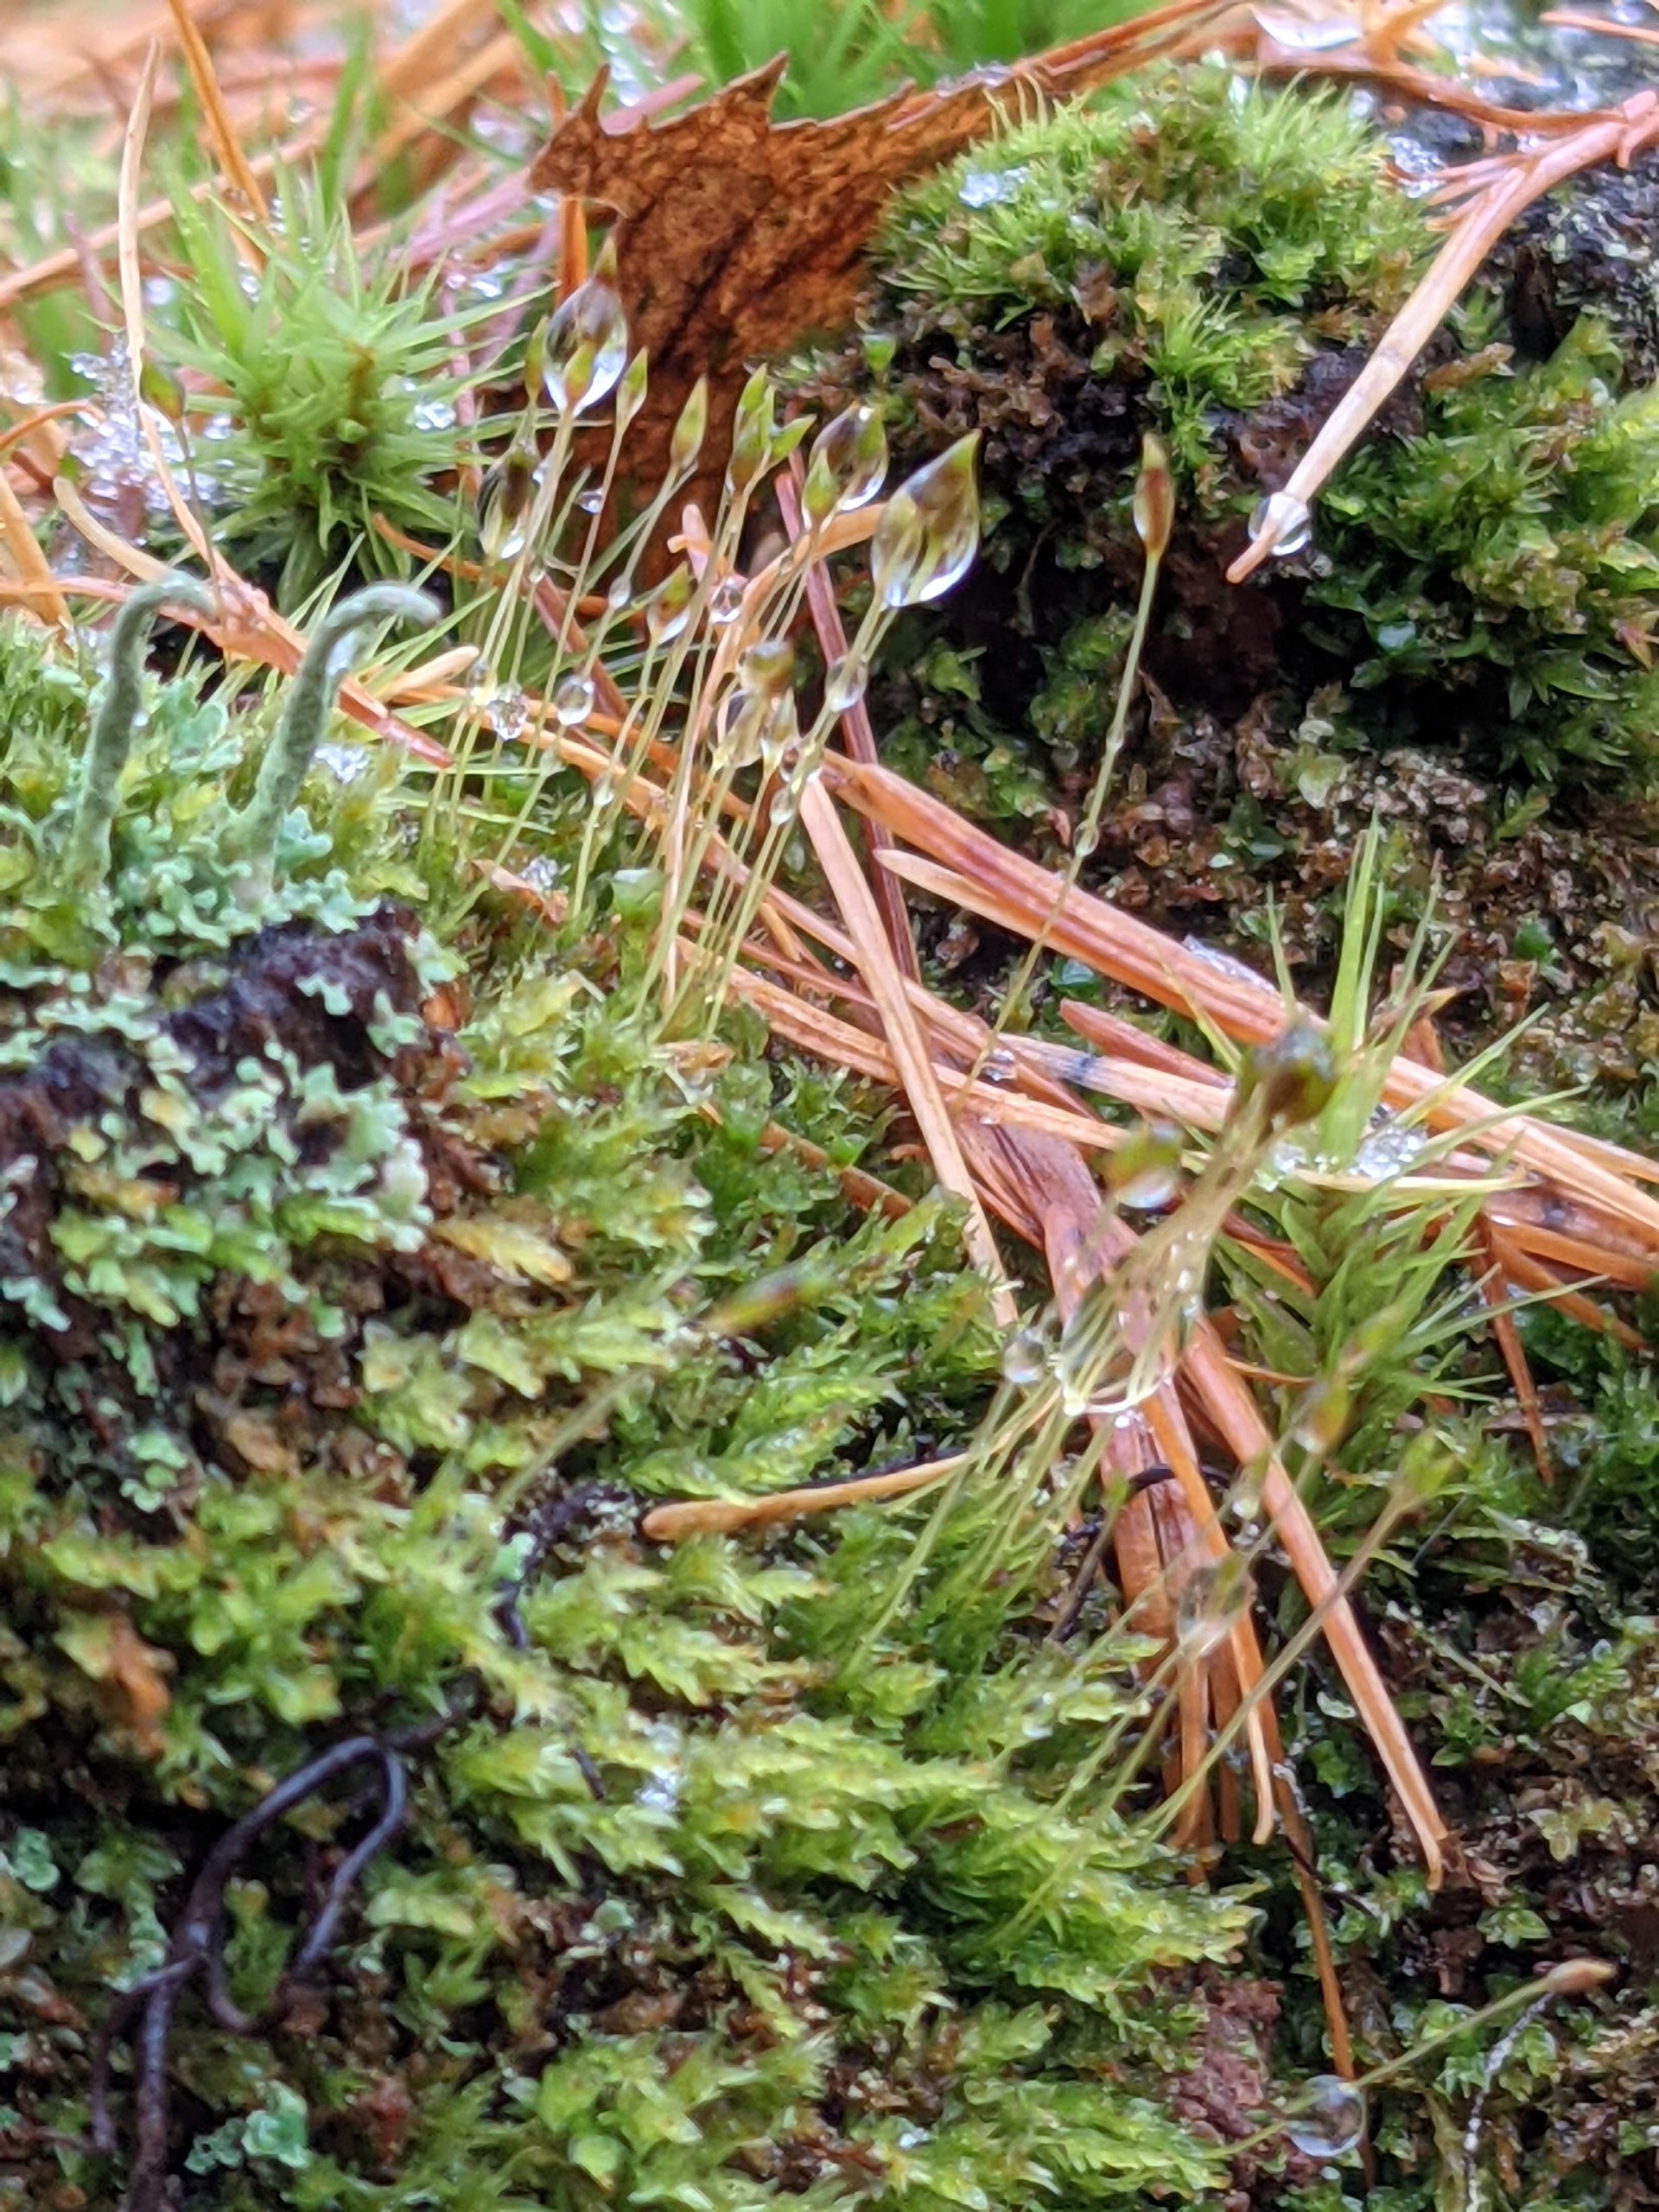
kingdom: Plantae
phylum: Bryophyta
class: Polytrichopsida
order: Tetraphidales
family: Tetraphidaceae
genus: Tetraphis
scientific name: Tetraphis pellucida
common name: Almindelig firtand
